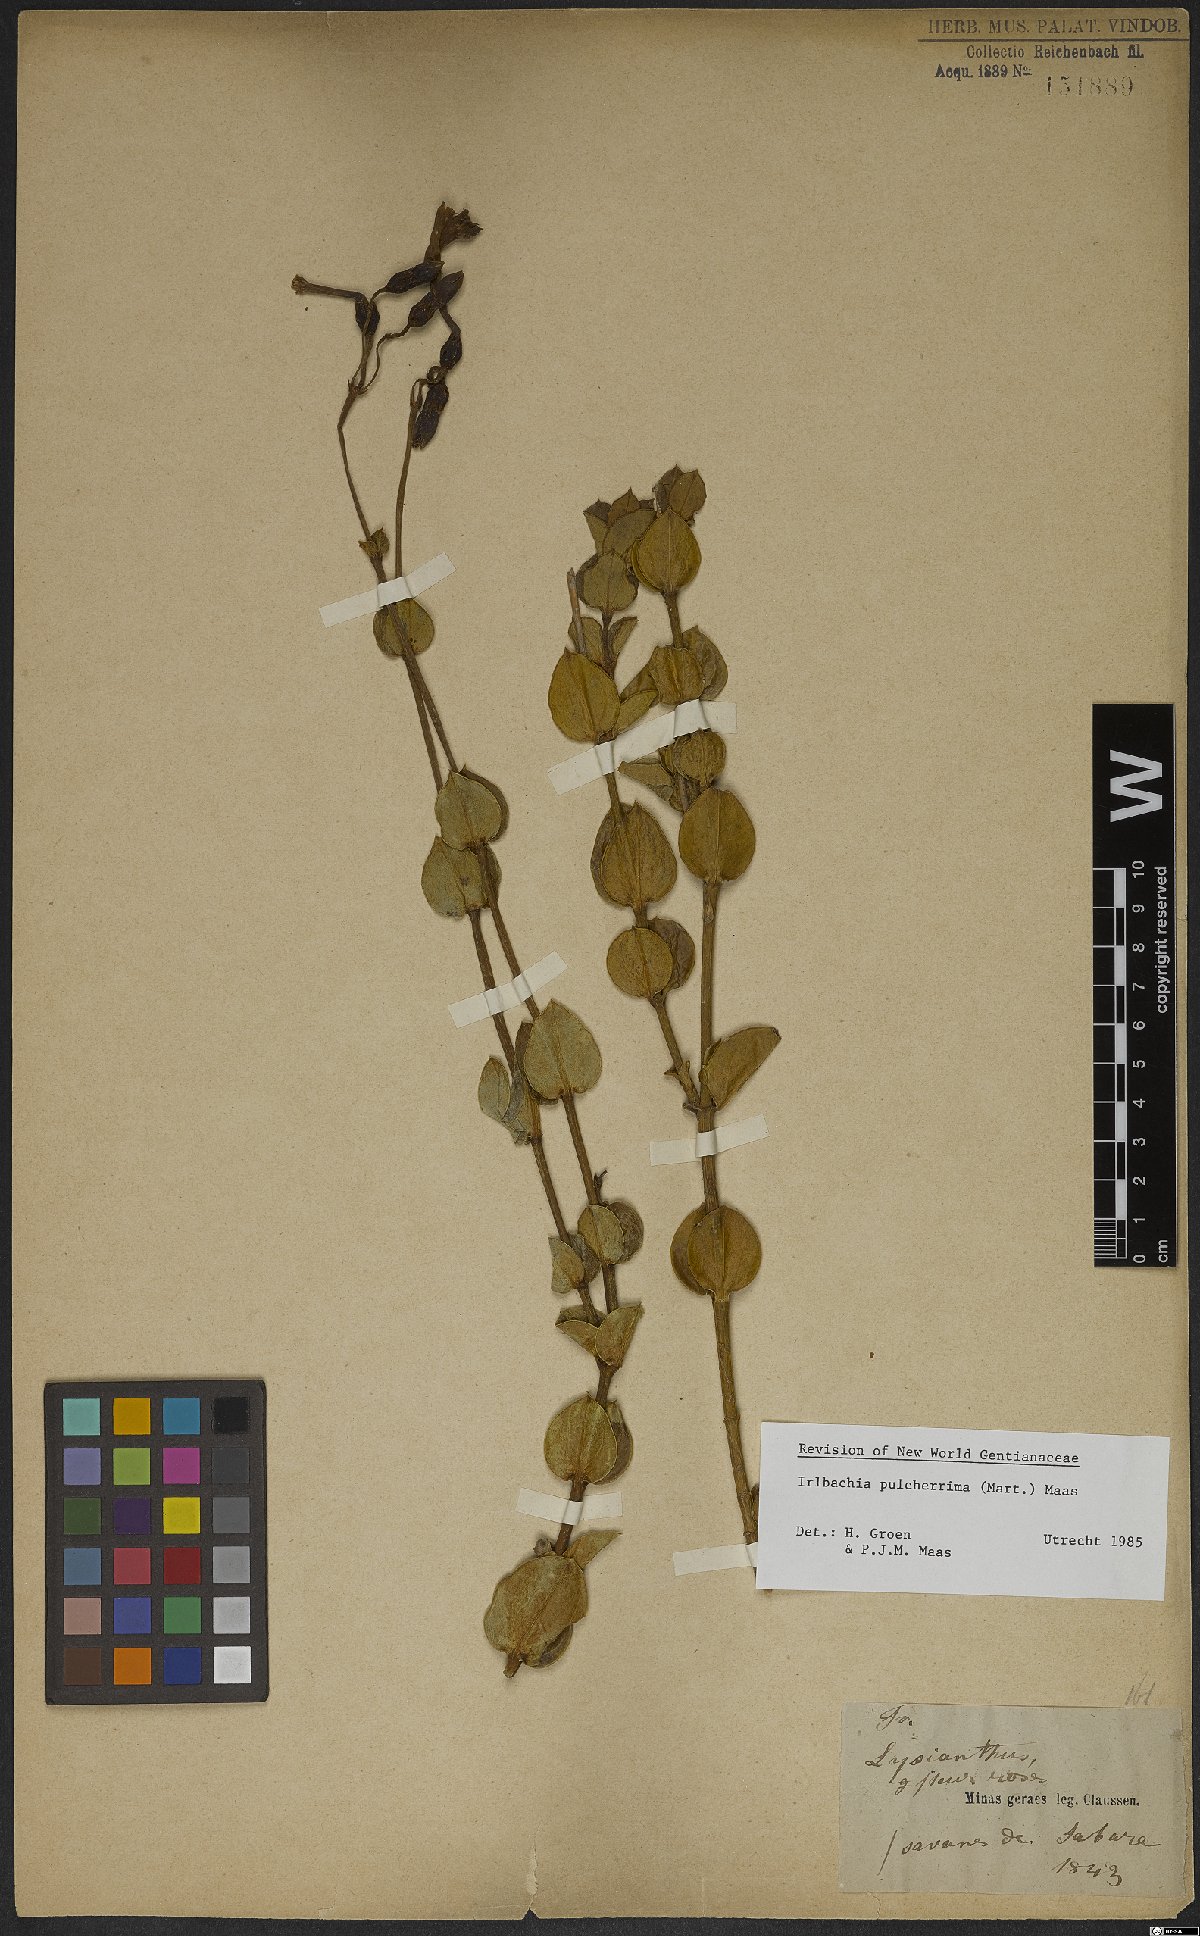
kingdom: Plantae
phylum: Tracheophyta
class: Magnoliopsida
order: Gentianales
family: Gentianaceae
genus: Calolisianthus
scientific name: Calolisianthus pulcherrimus
